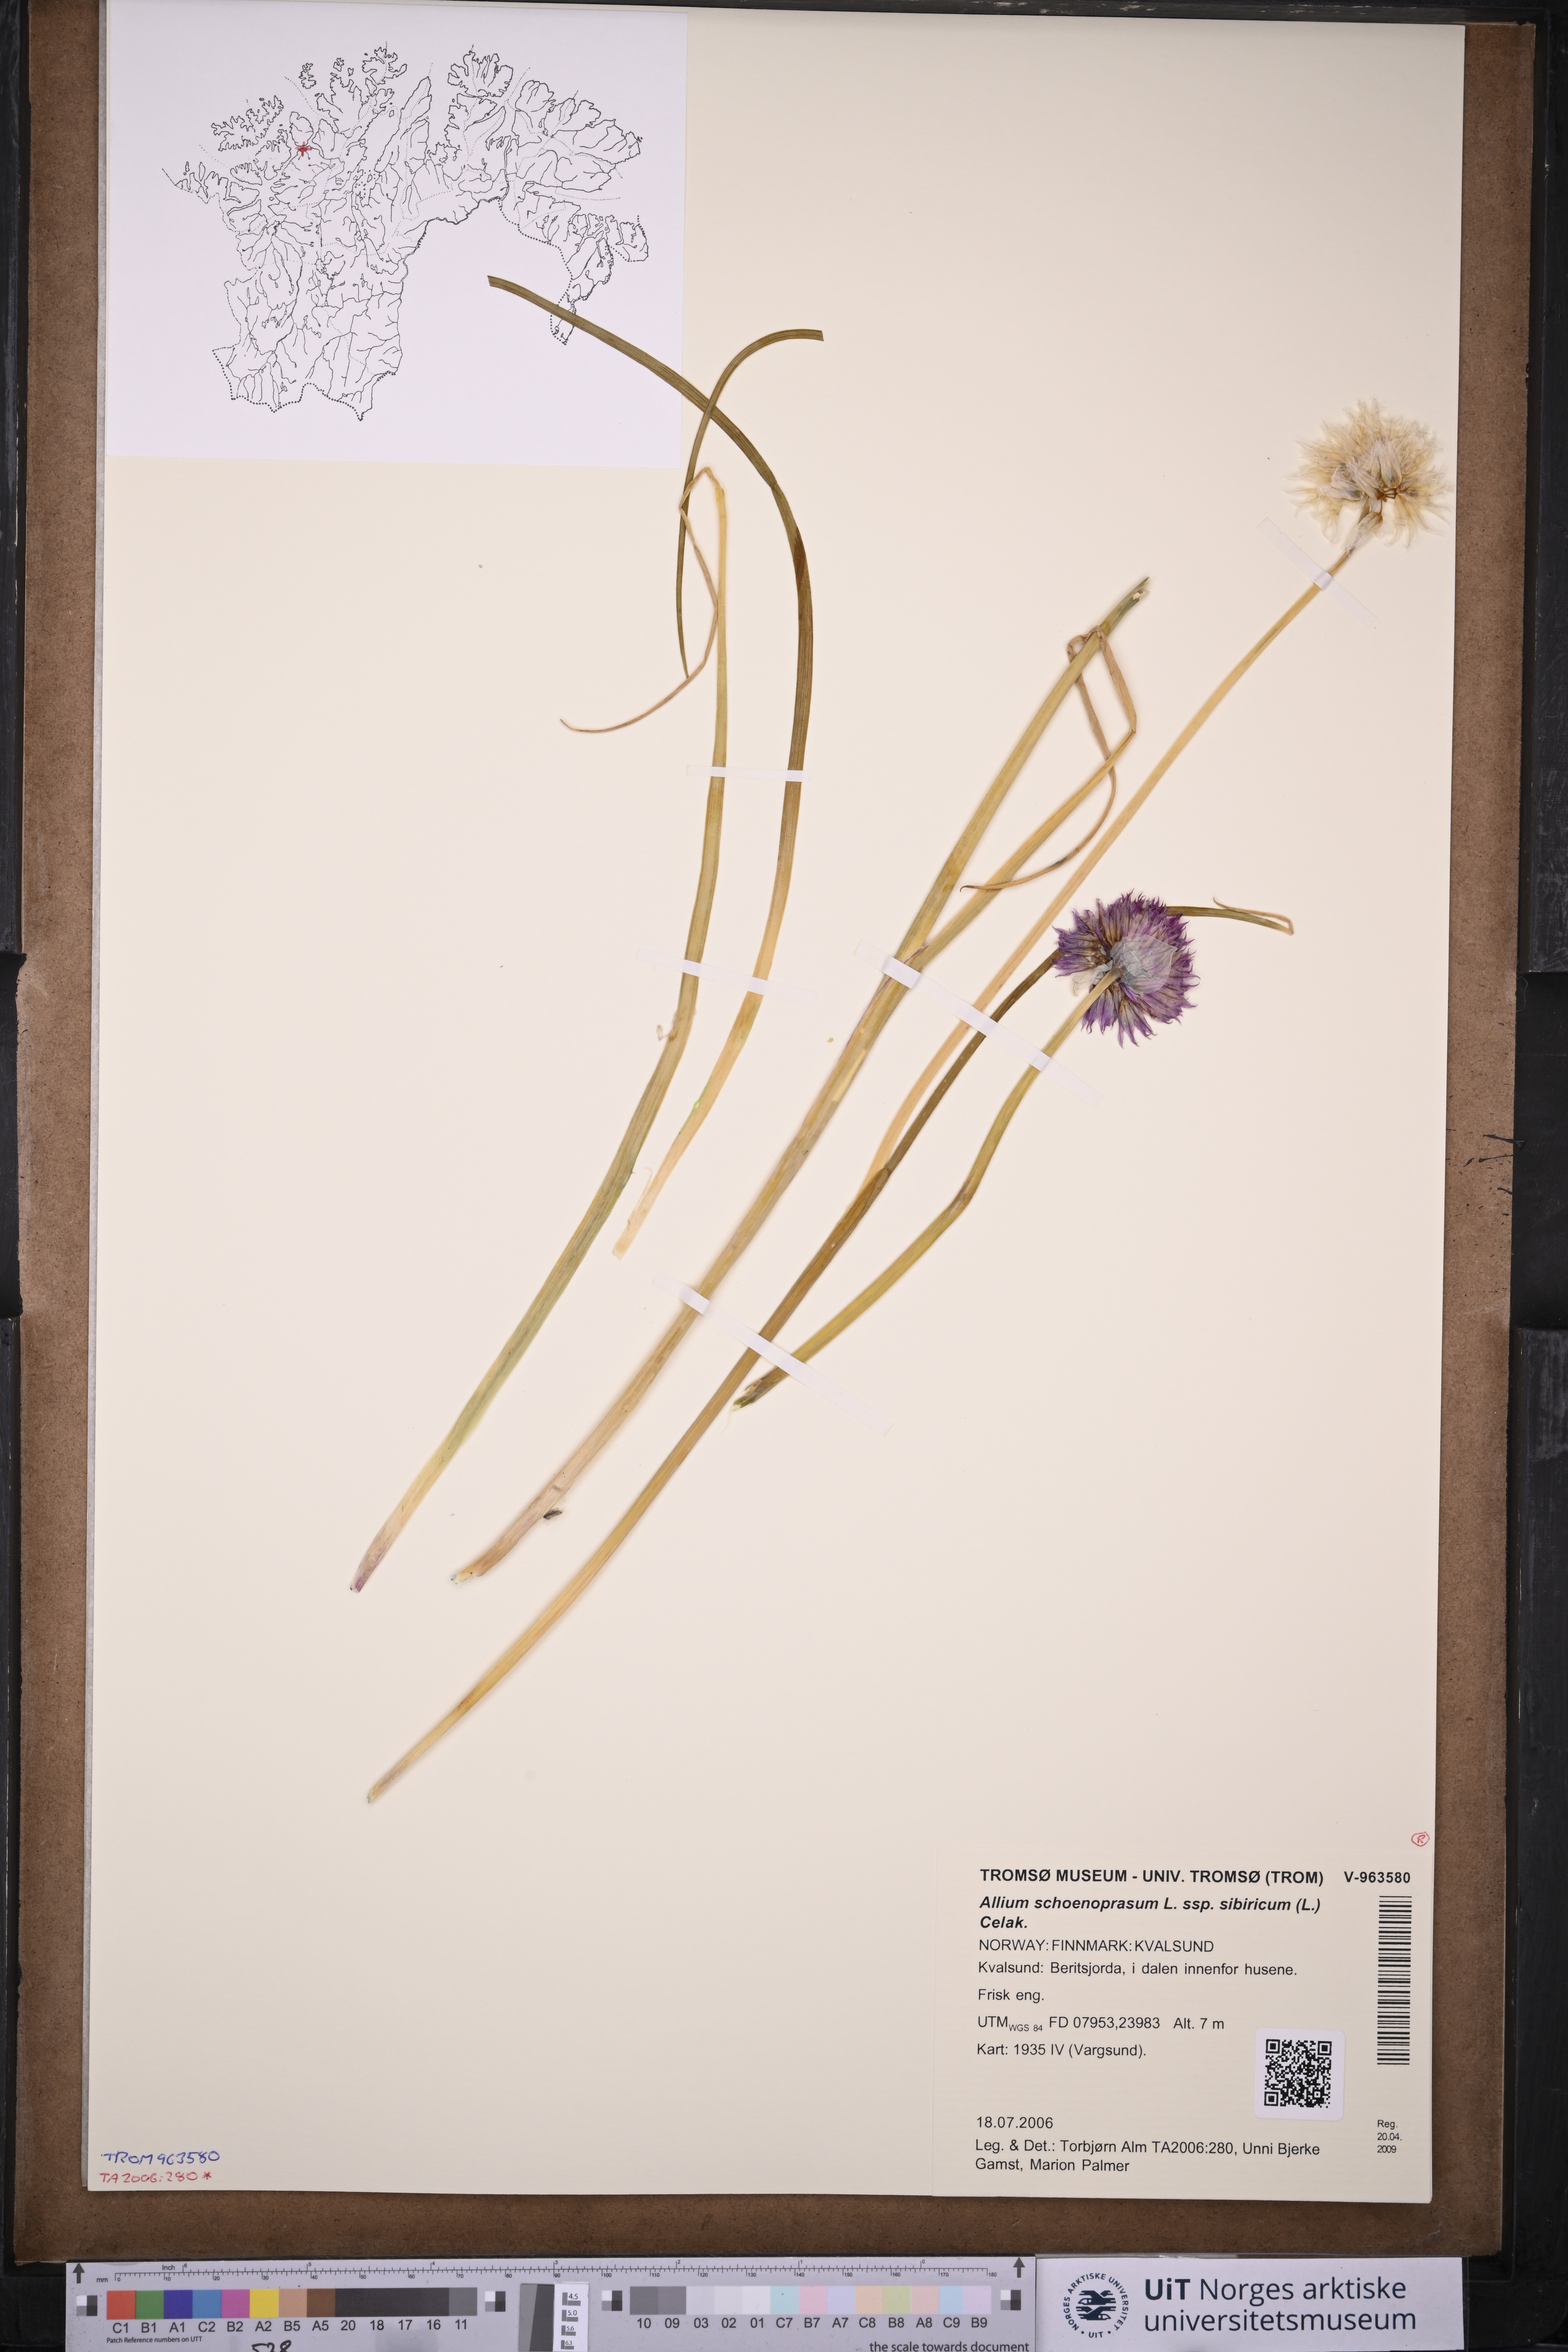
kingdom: Plantae
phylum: Tracheophyta
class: Liliopsida
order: Asparagales
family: Amaryllidaceae
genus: Allium
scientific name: Allium schoenoprasum
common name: Chives
